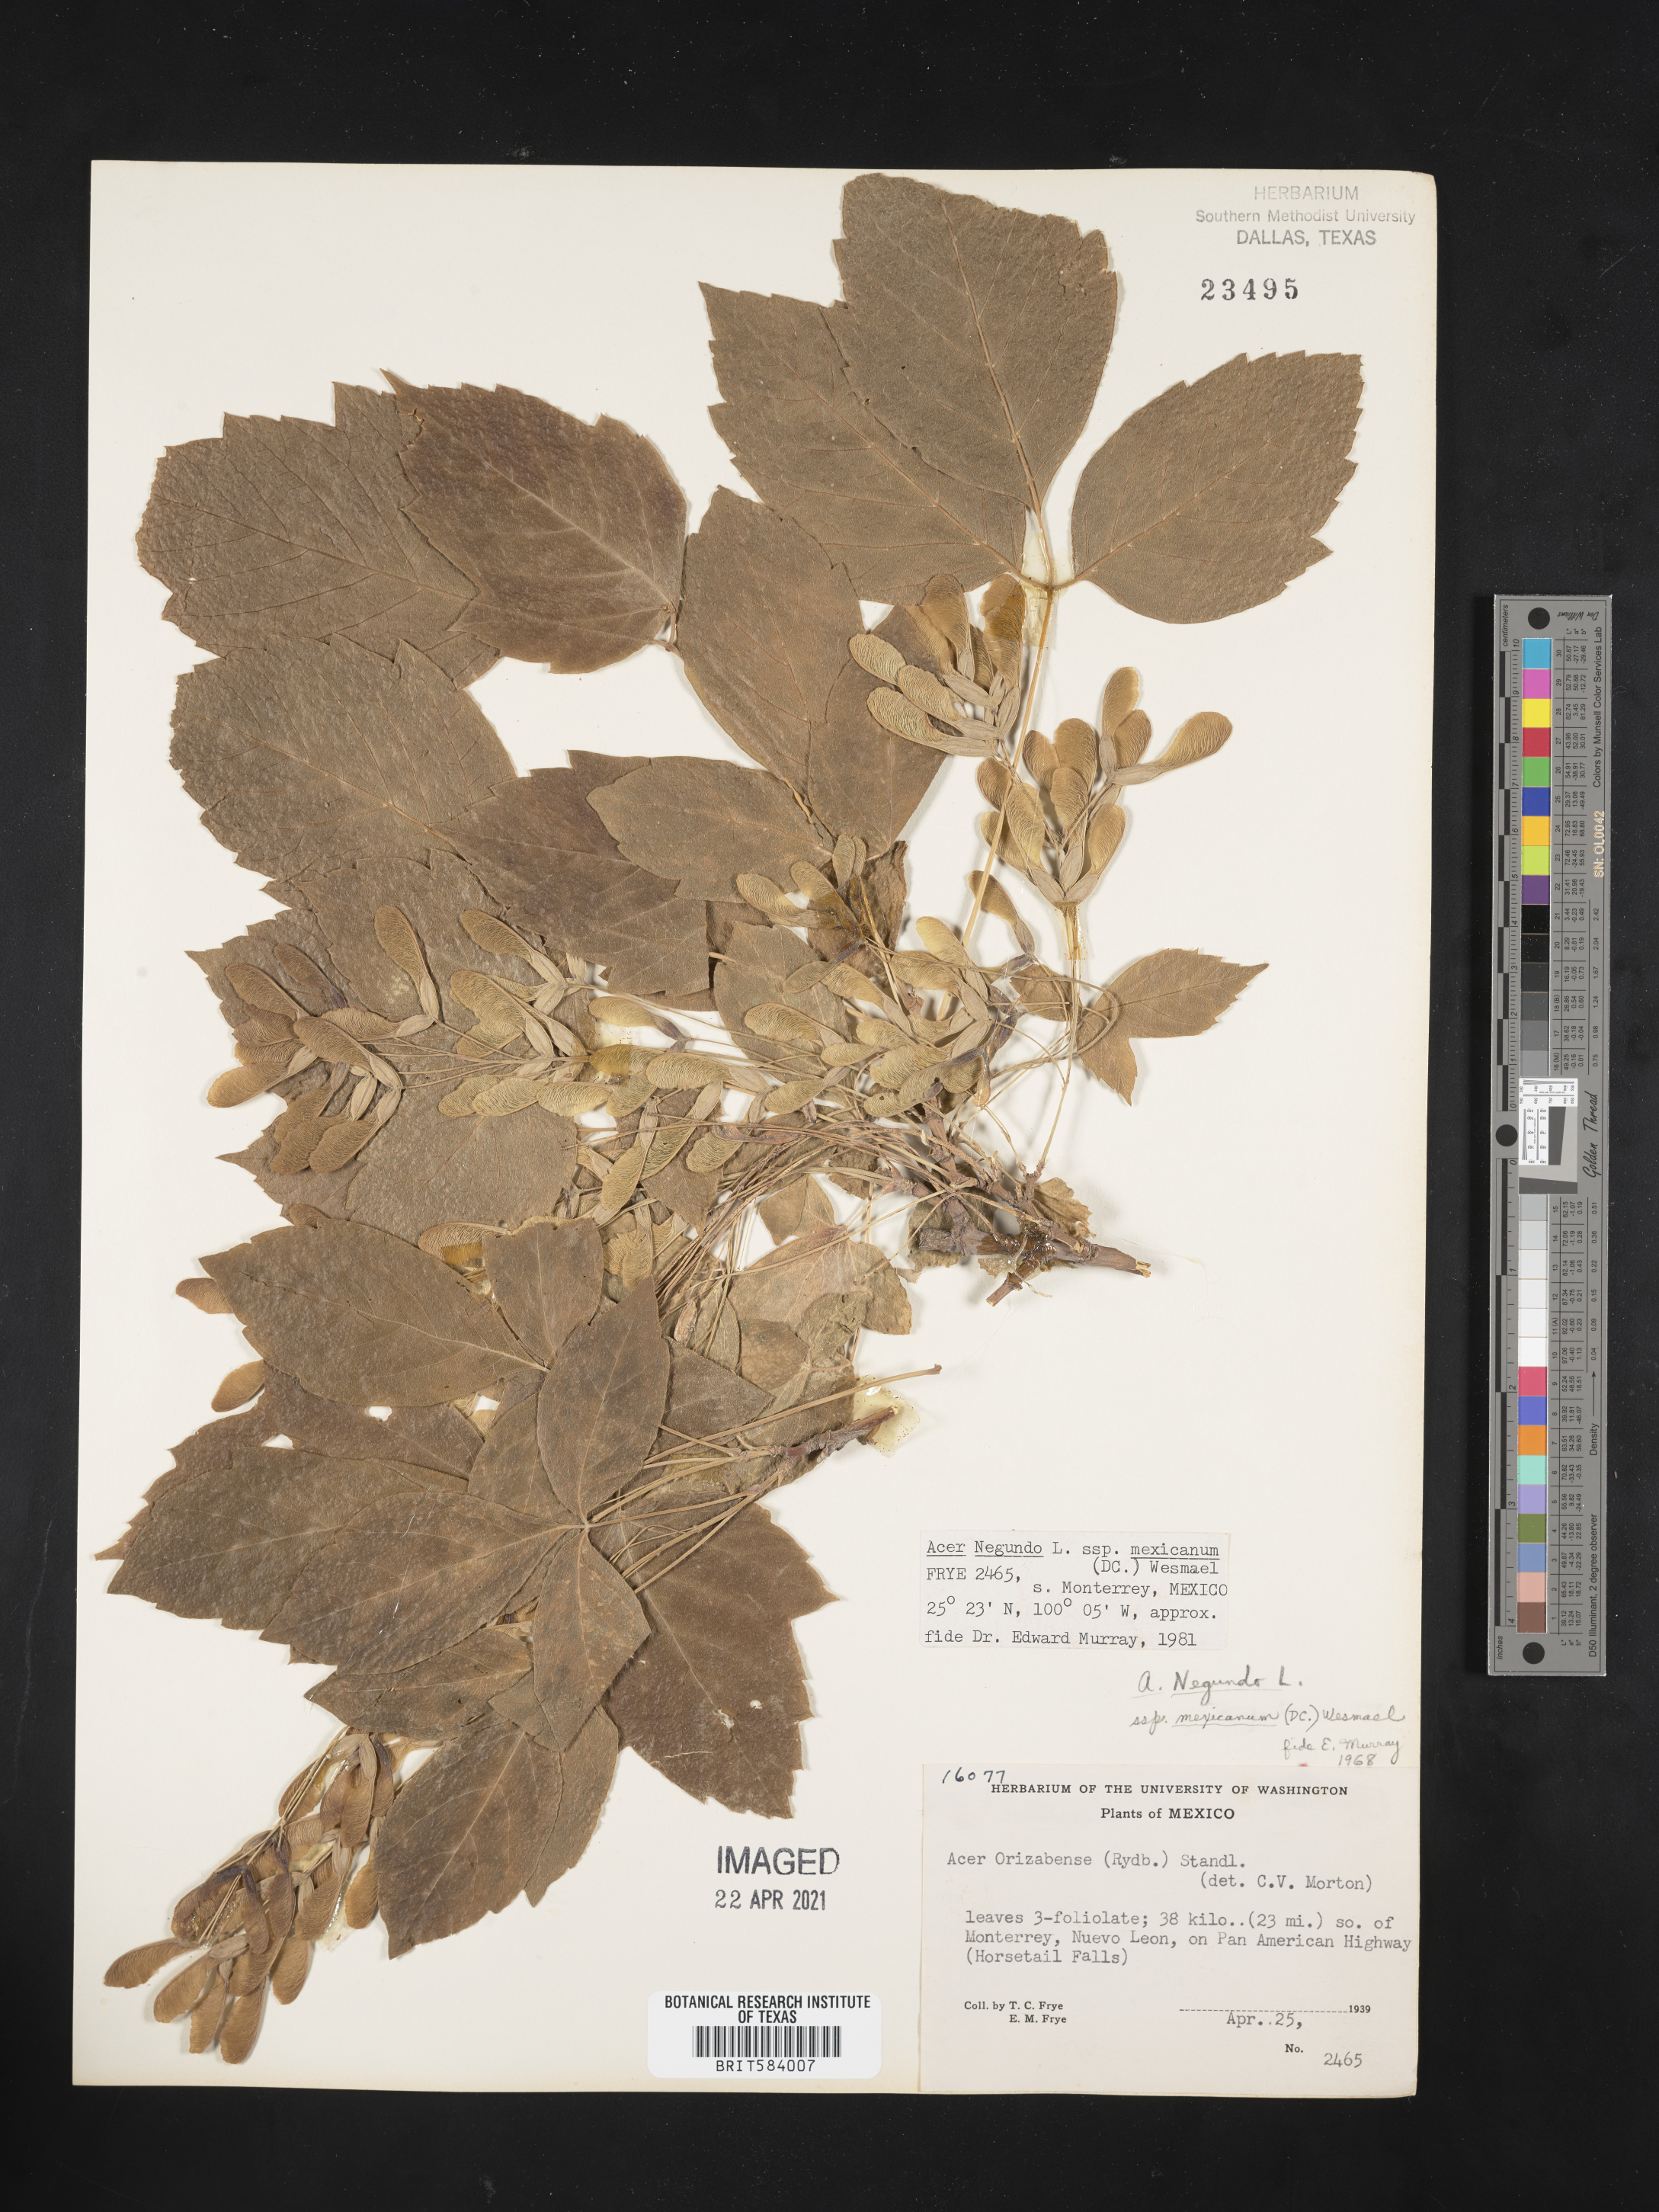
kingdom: Plantae
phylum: Tracheophyta
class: Magnoliopsida
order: Sapindales
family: Sapindaceae
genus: Acer
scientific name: Acer negundo
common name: Ashleaf maple
